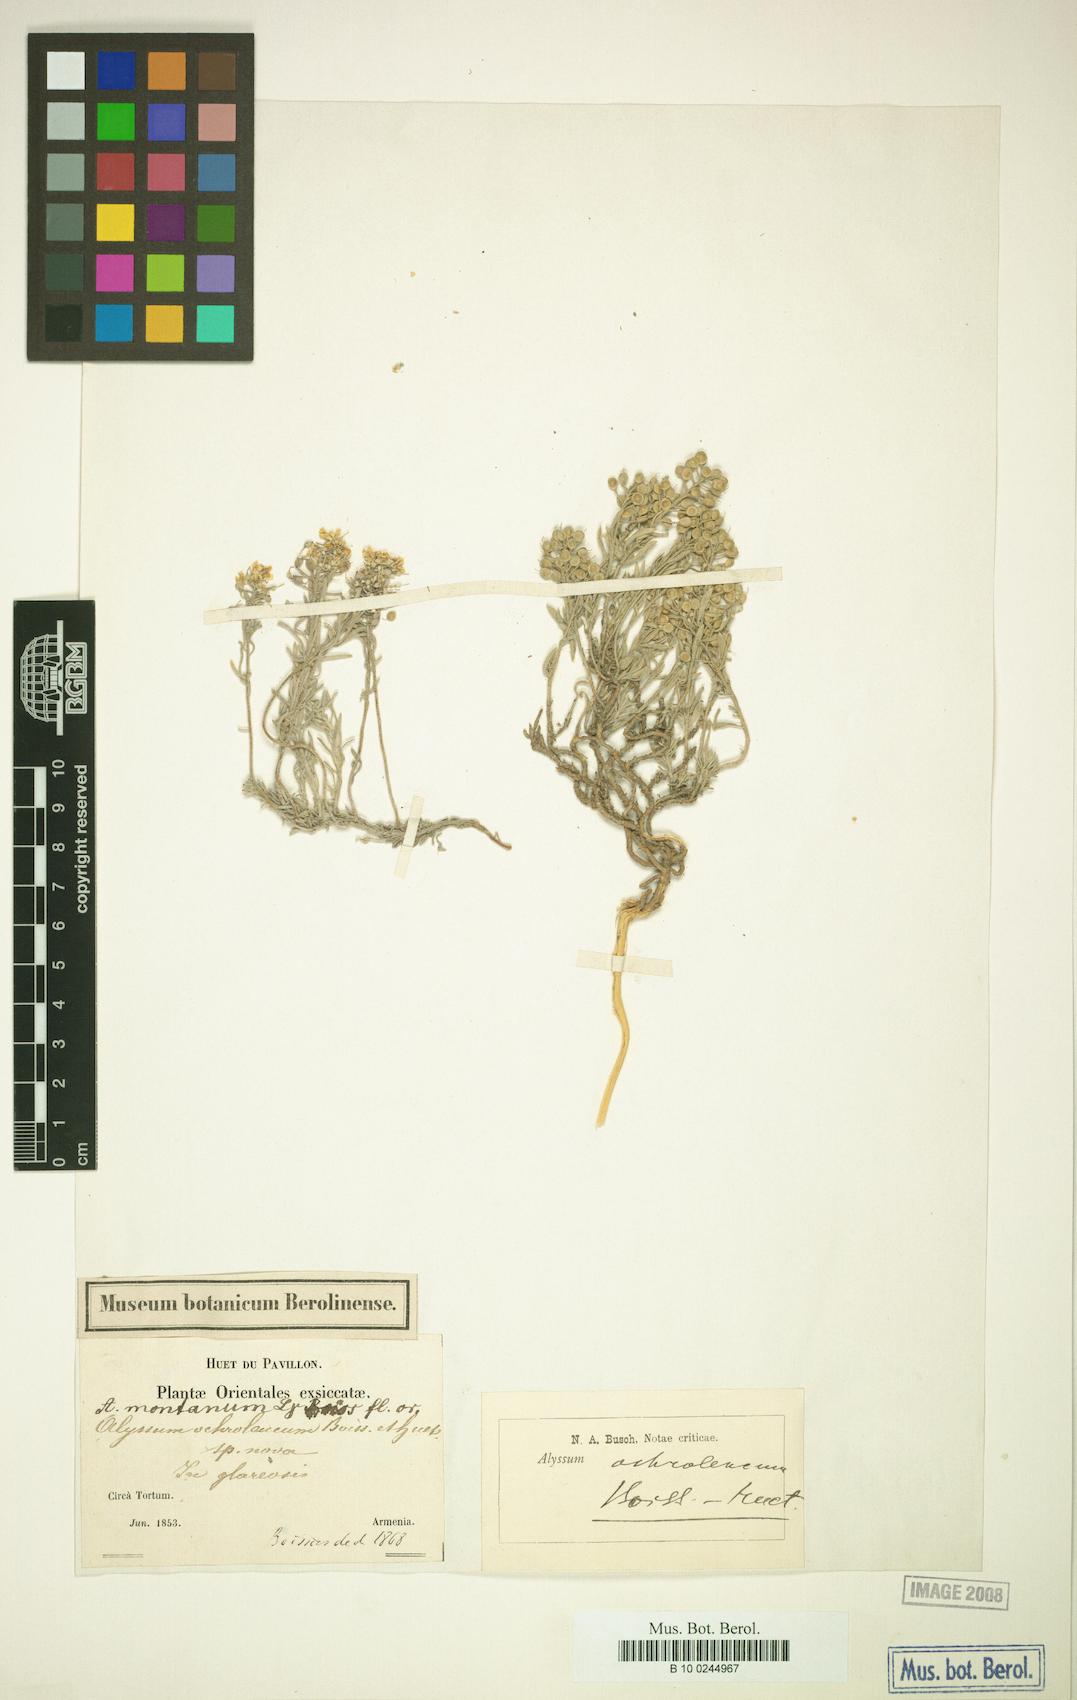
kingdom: Plantae
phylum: Tracheophyta
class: Magnoliopsida
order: Brassicales
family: Brassicaceae
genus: Alyssum
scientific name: Alyssum ochroleucum
